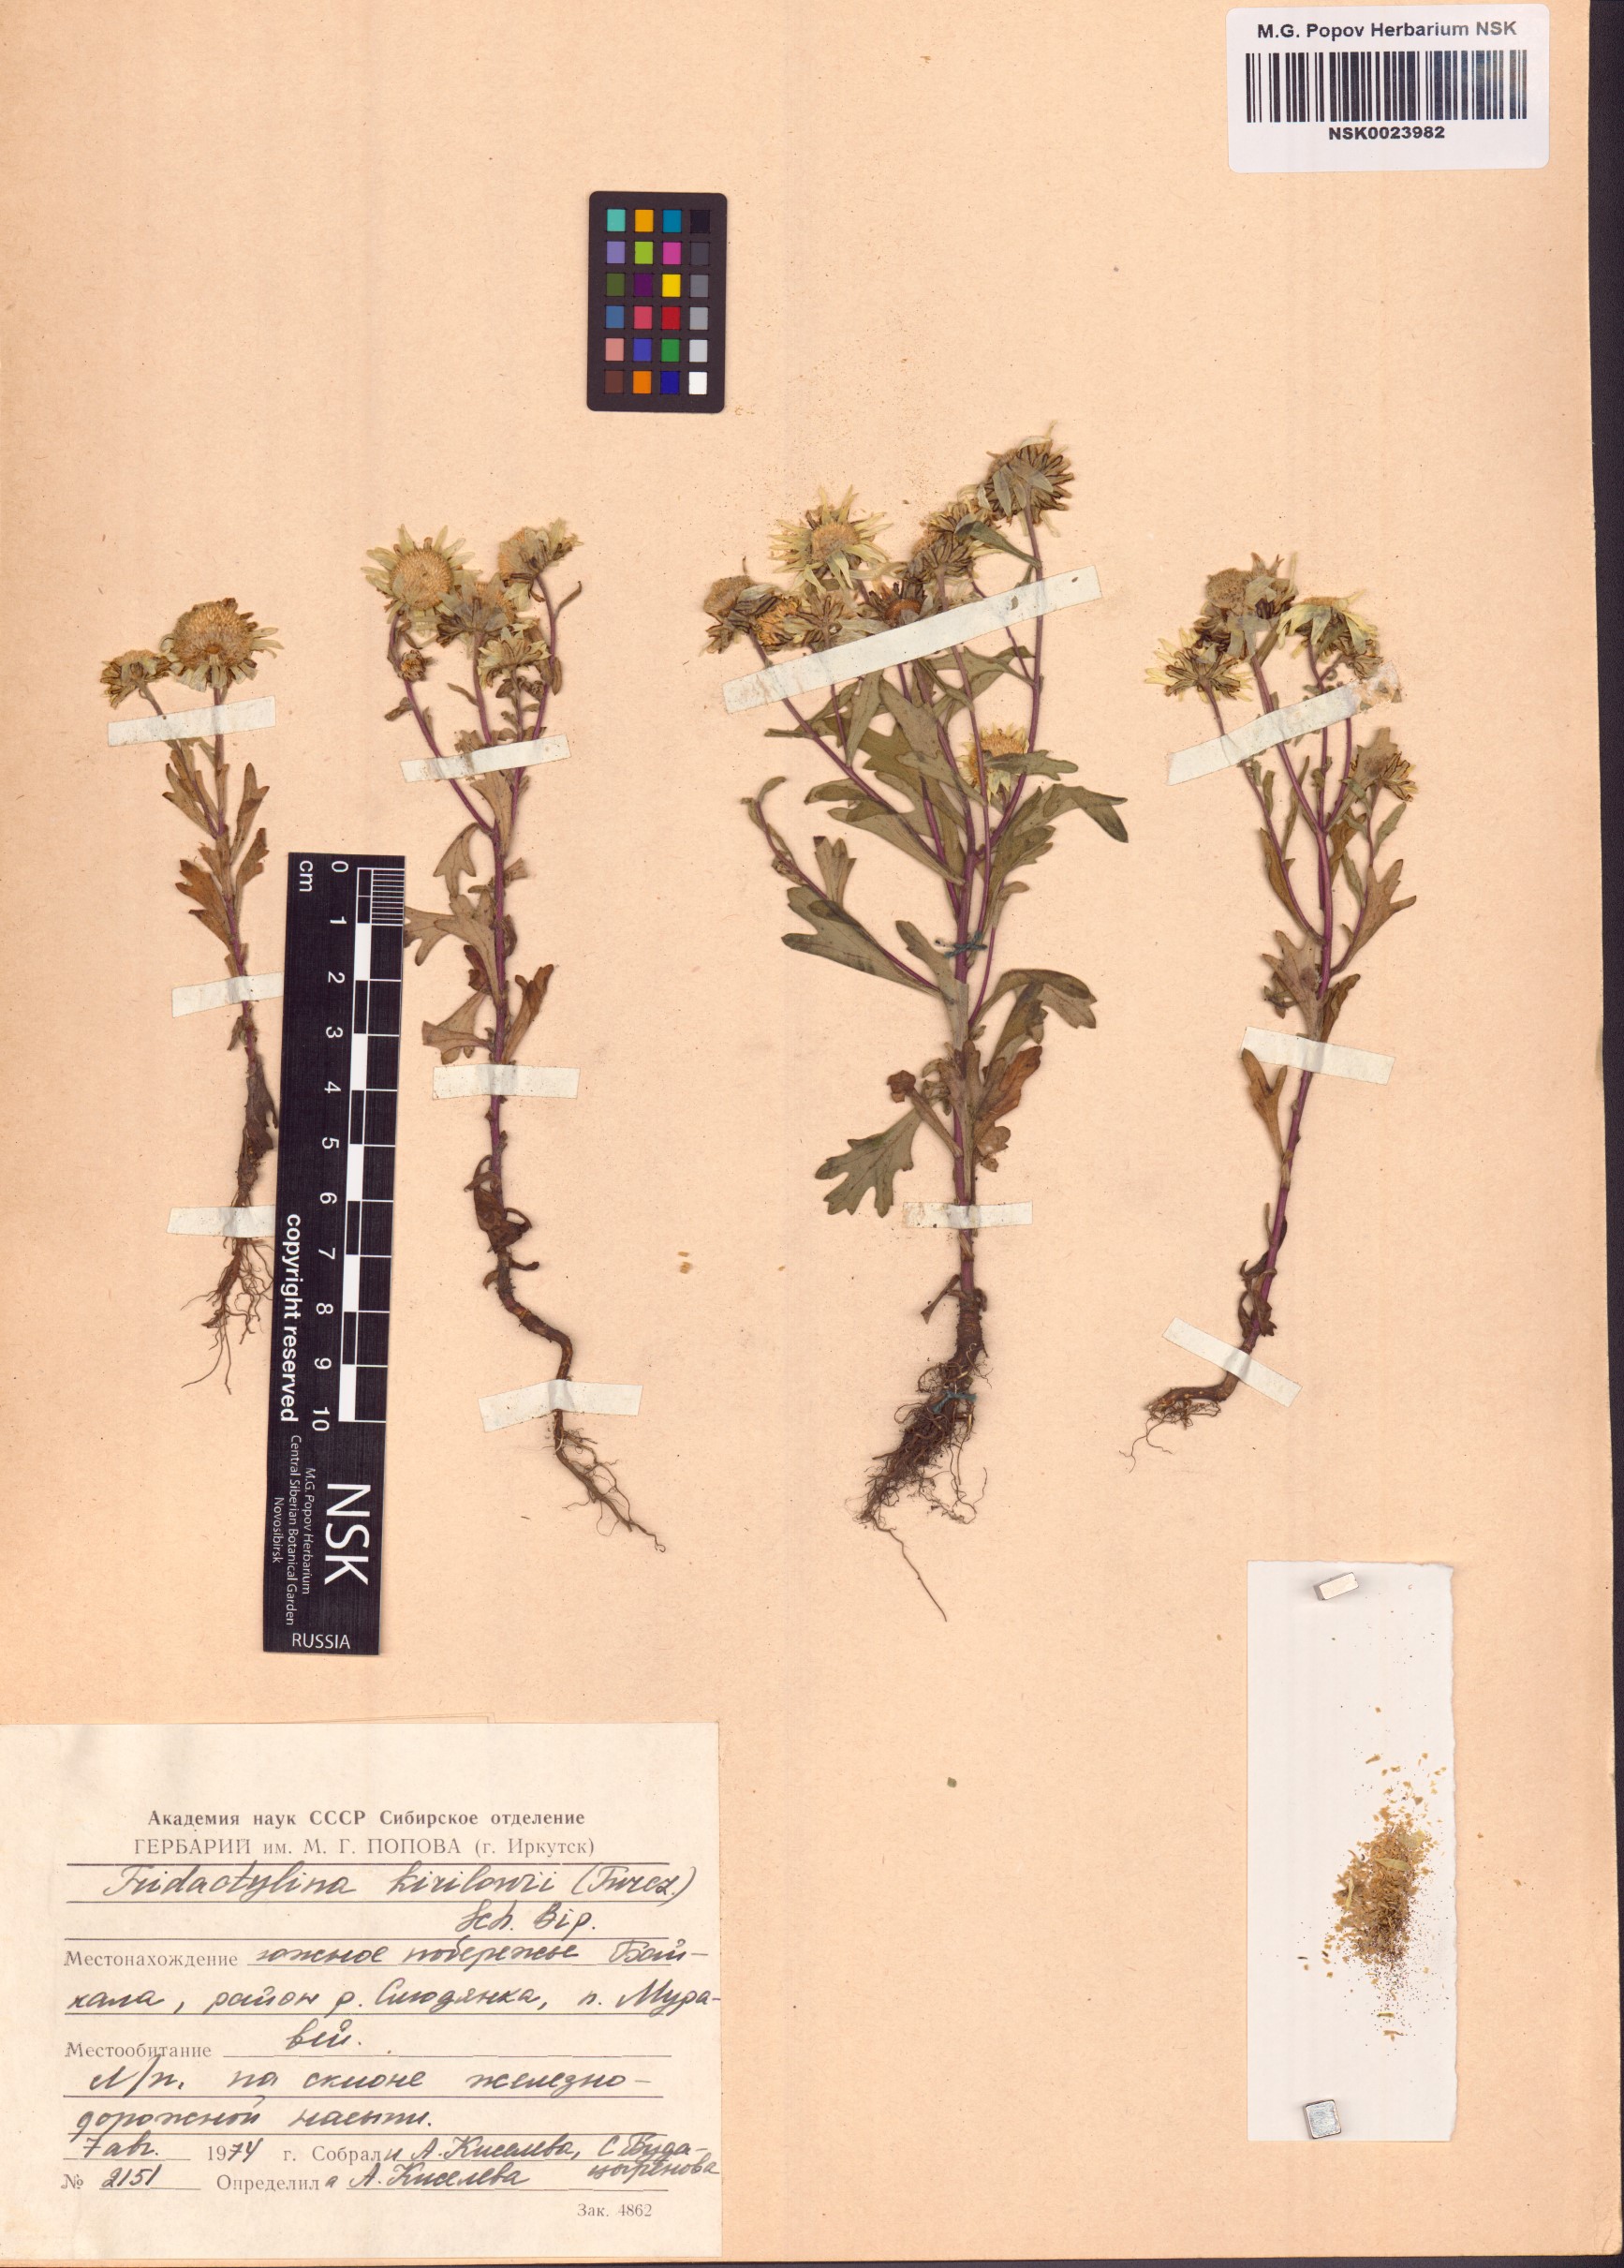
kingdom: Plantae
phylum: Tracheophyta
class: Magnoliopsida
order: Asterales
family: Asteraceae
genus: Tridactylina
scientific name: Tridactylina kirilowii
